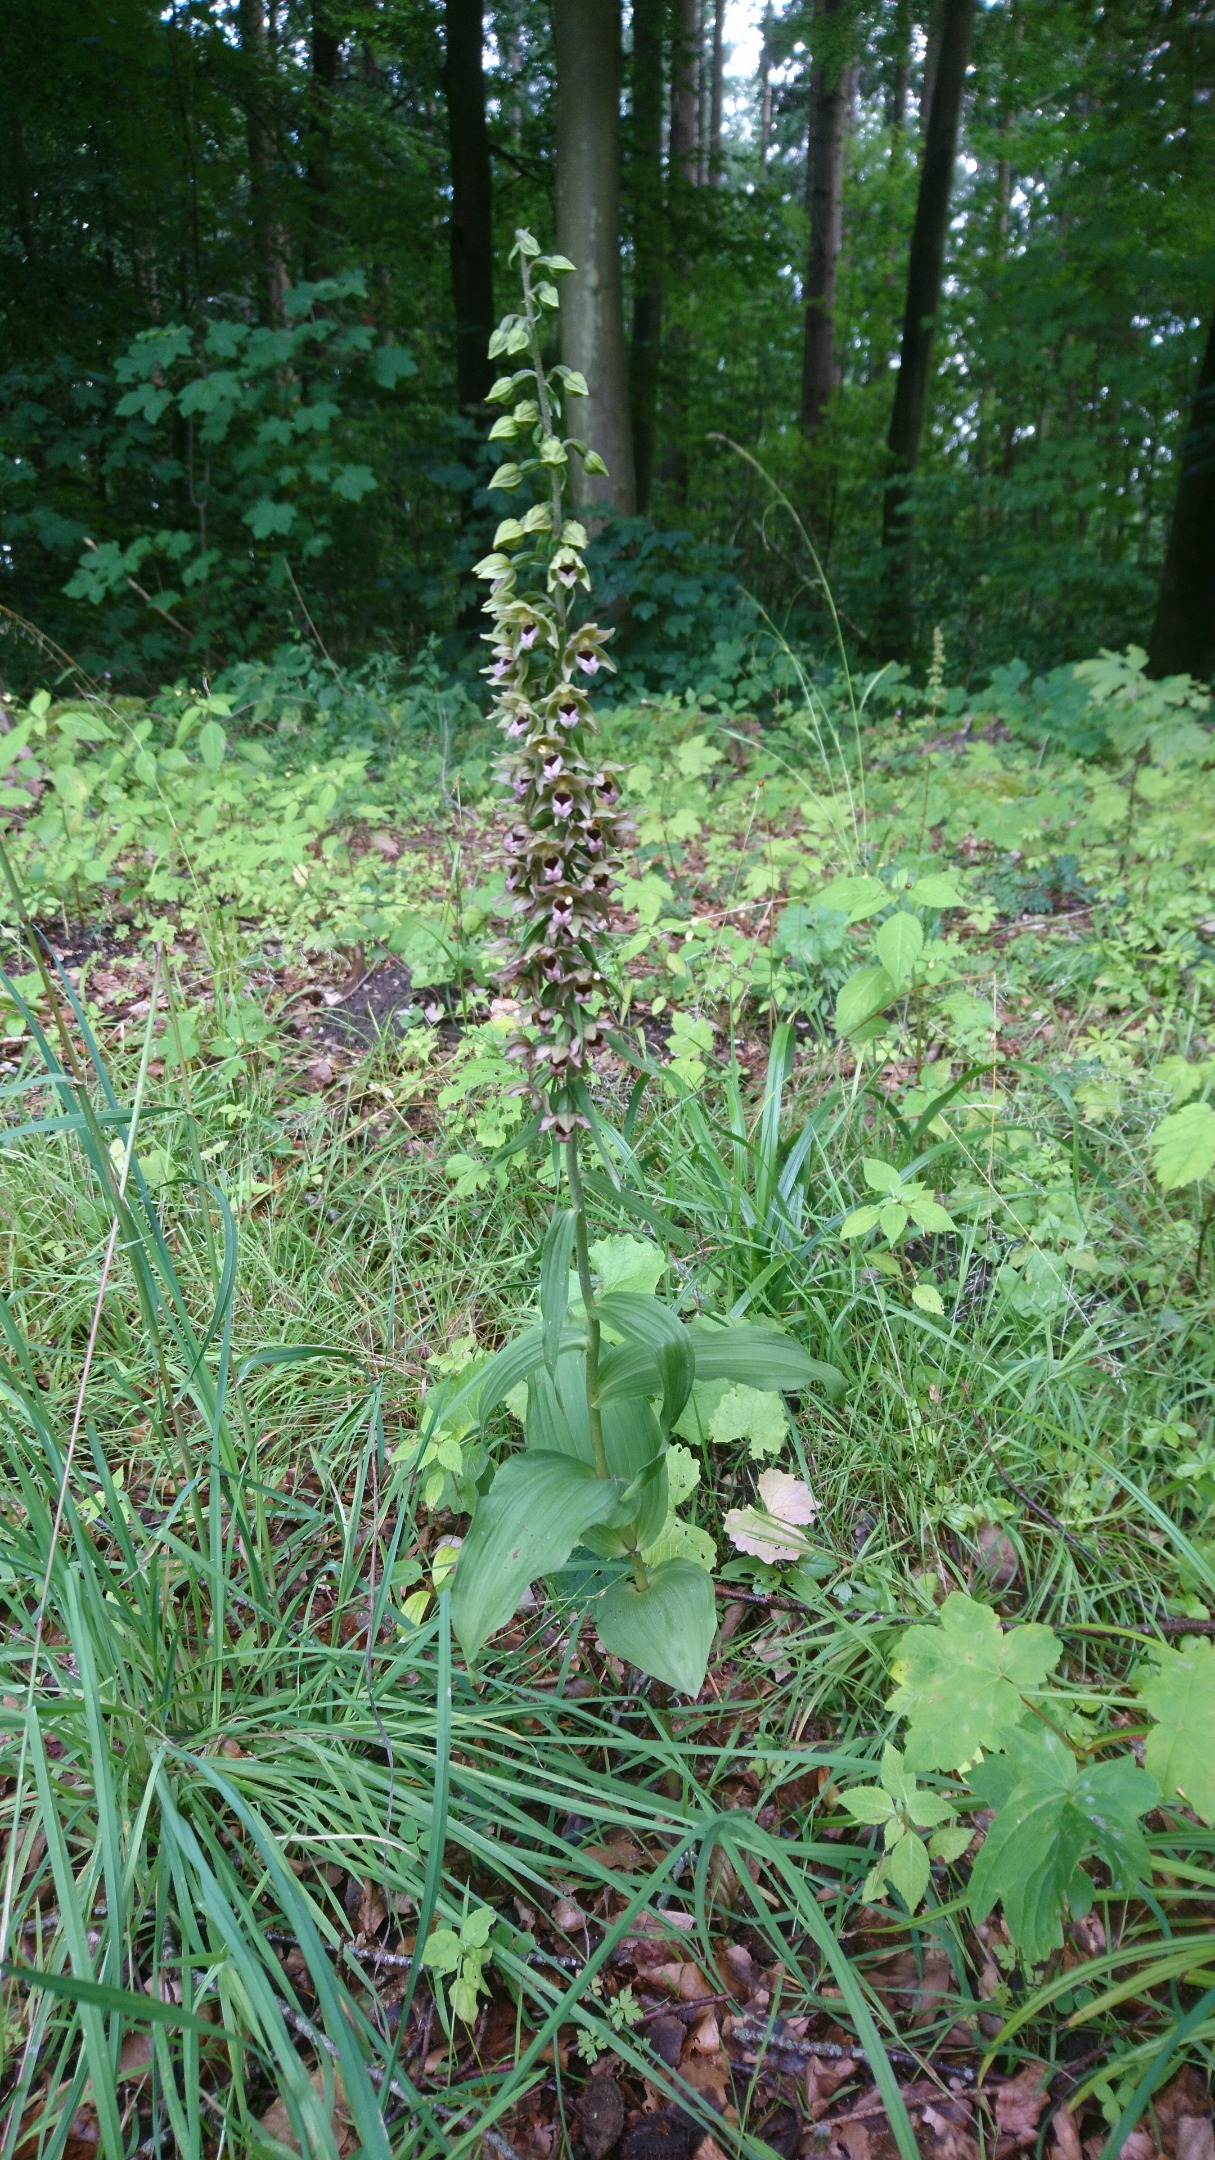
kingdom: Plantae
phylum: Tracheophyta
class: Liliopsida
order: Asparagales
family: Orchidaceae
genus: Epipactis
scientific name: Epipactis helleborine
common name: Skov-hullæbe
